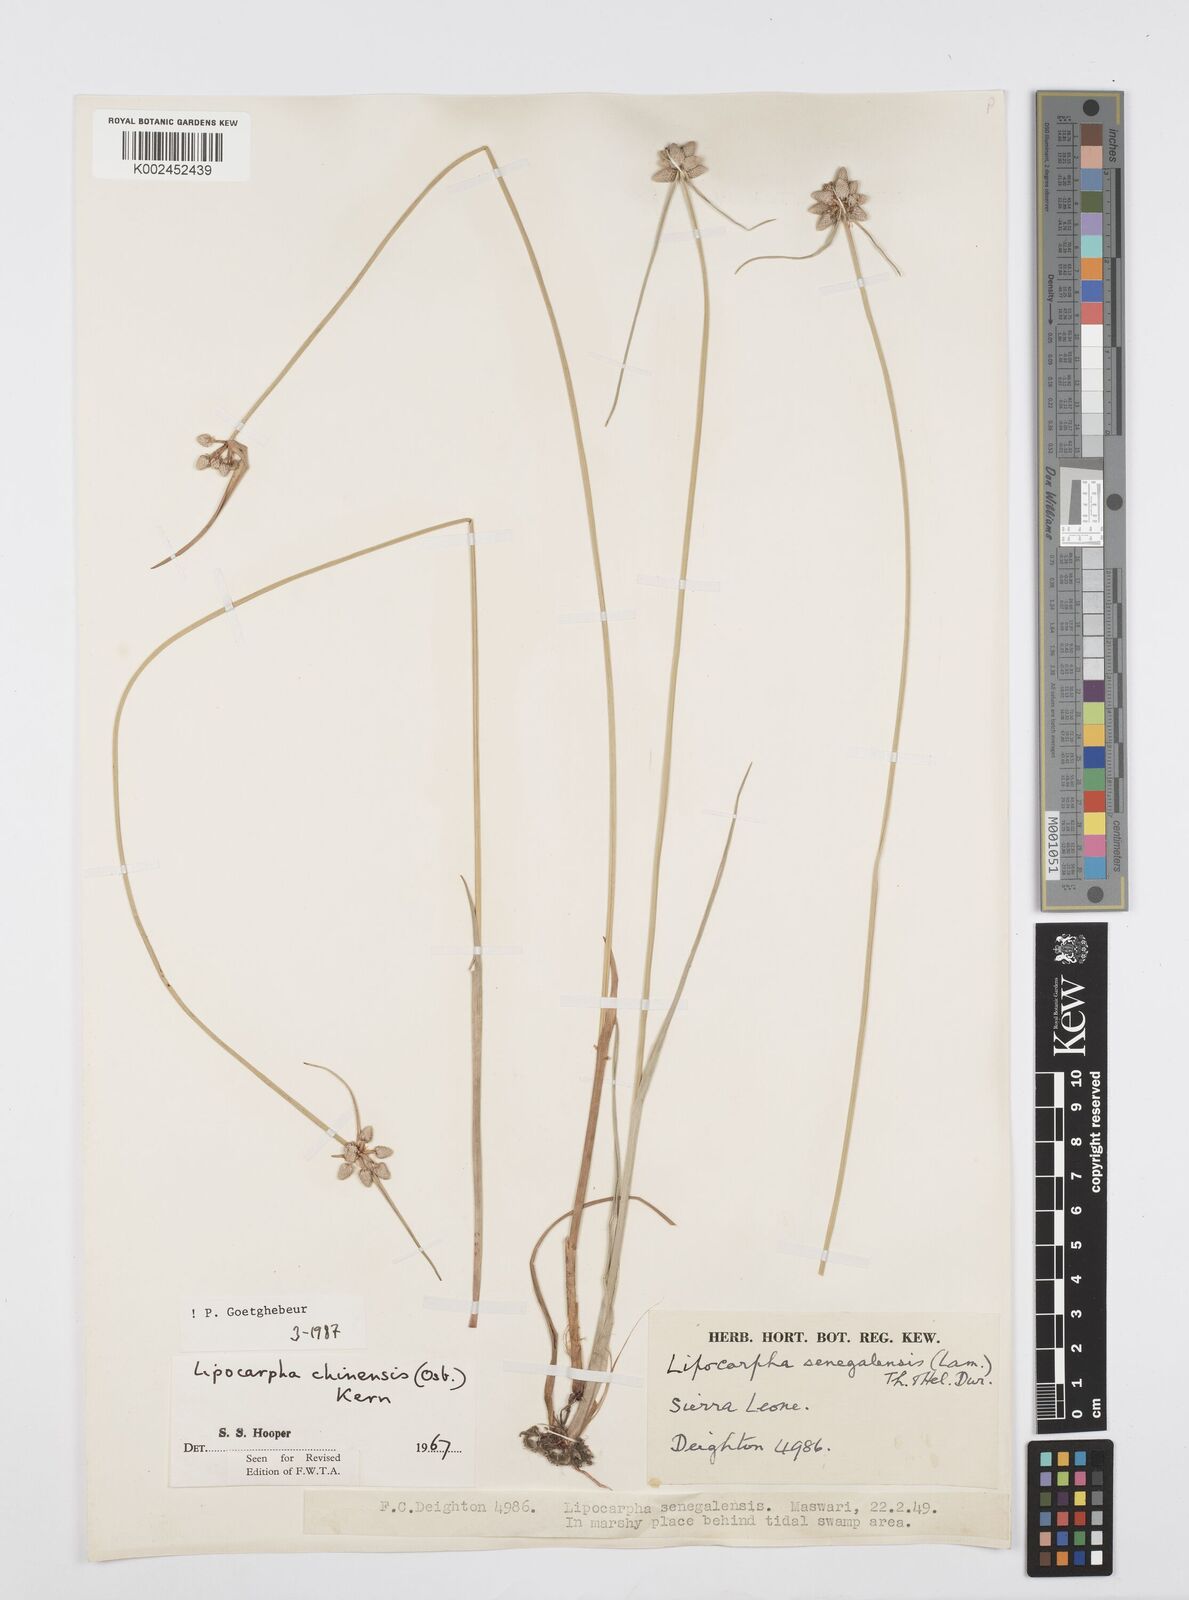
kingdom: Plantae
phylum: Tracheophyta
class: Liliopsida
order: Poales
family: Cyperaceae
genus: Cyperus
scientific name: Cyperus albescens
